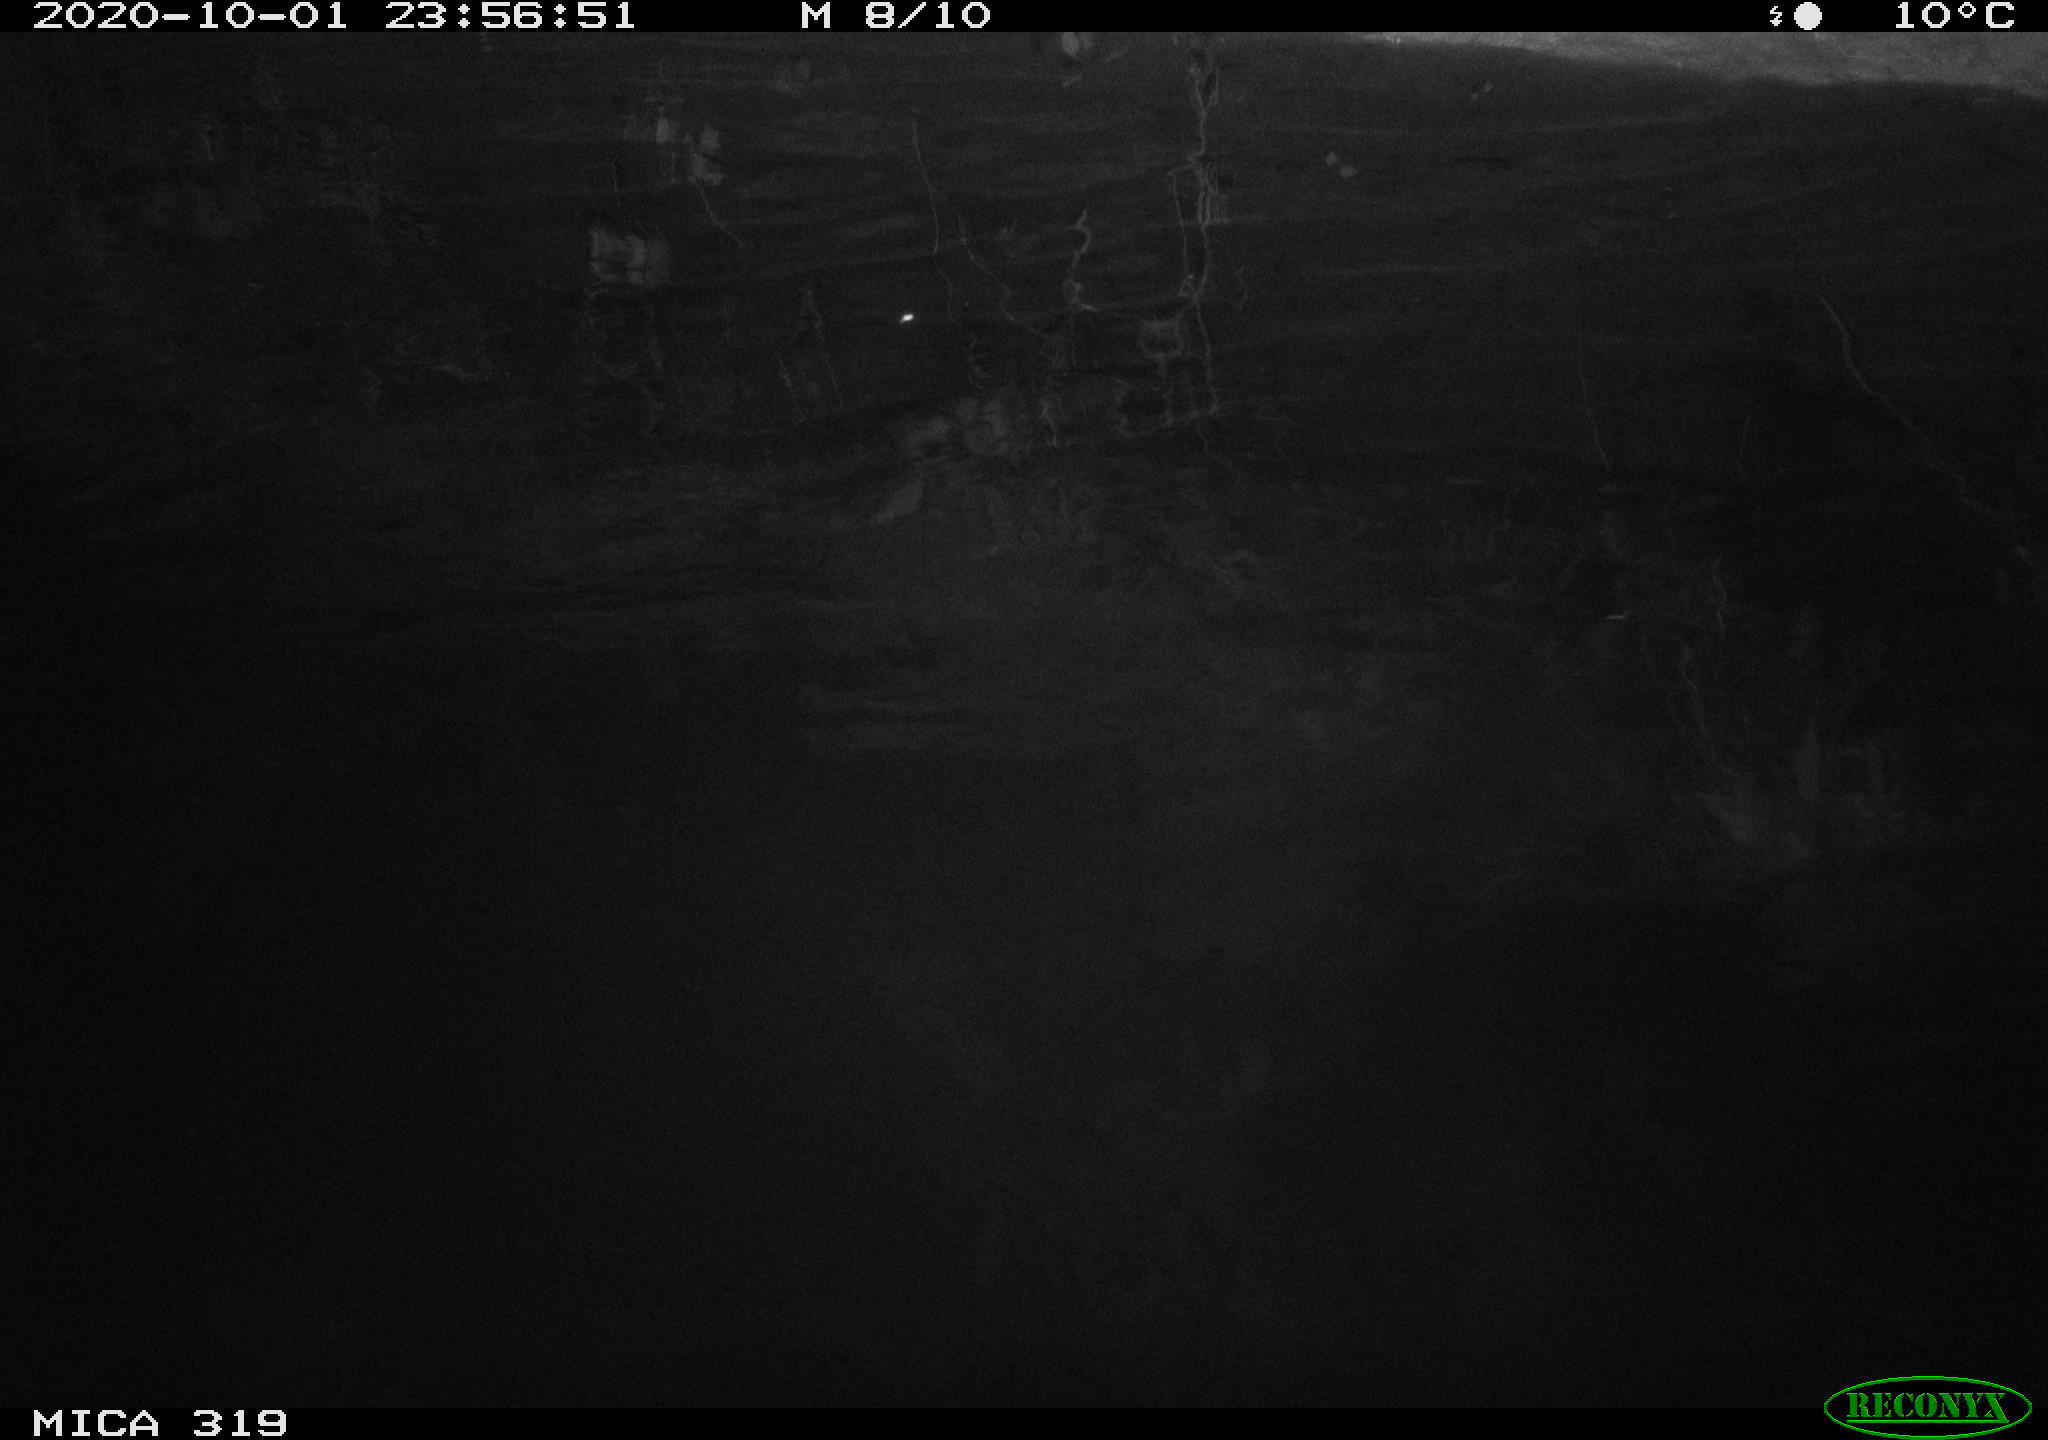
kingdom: Animalia
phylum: Chordata
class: Aves
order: Anseriformes
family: Anatidae
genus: Anas
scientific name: Anas platyrhynchos
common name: Mallard
